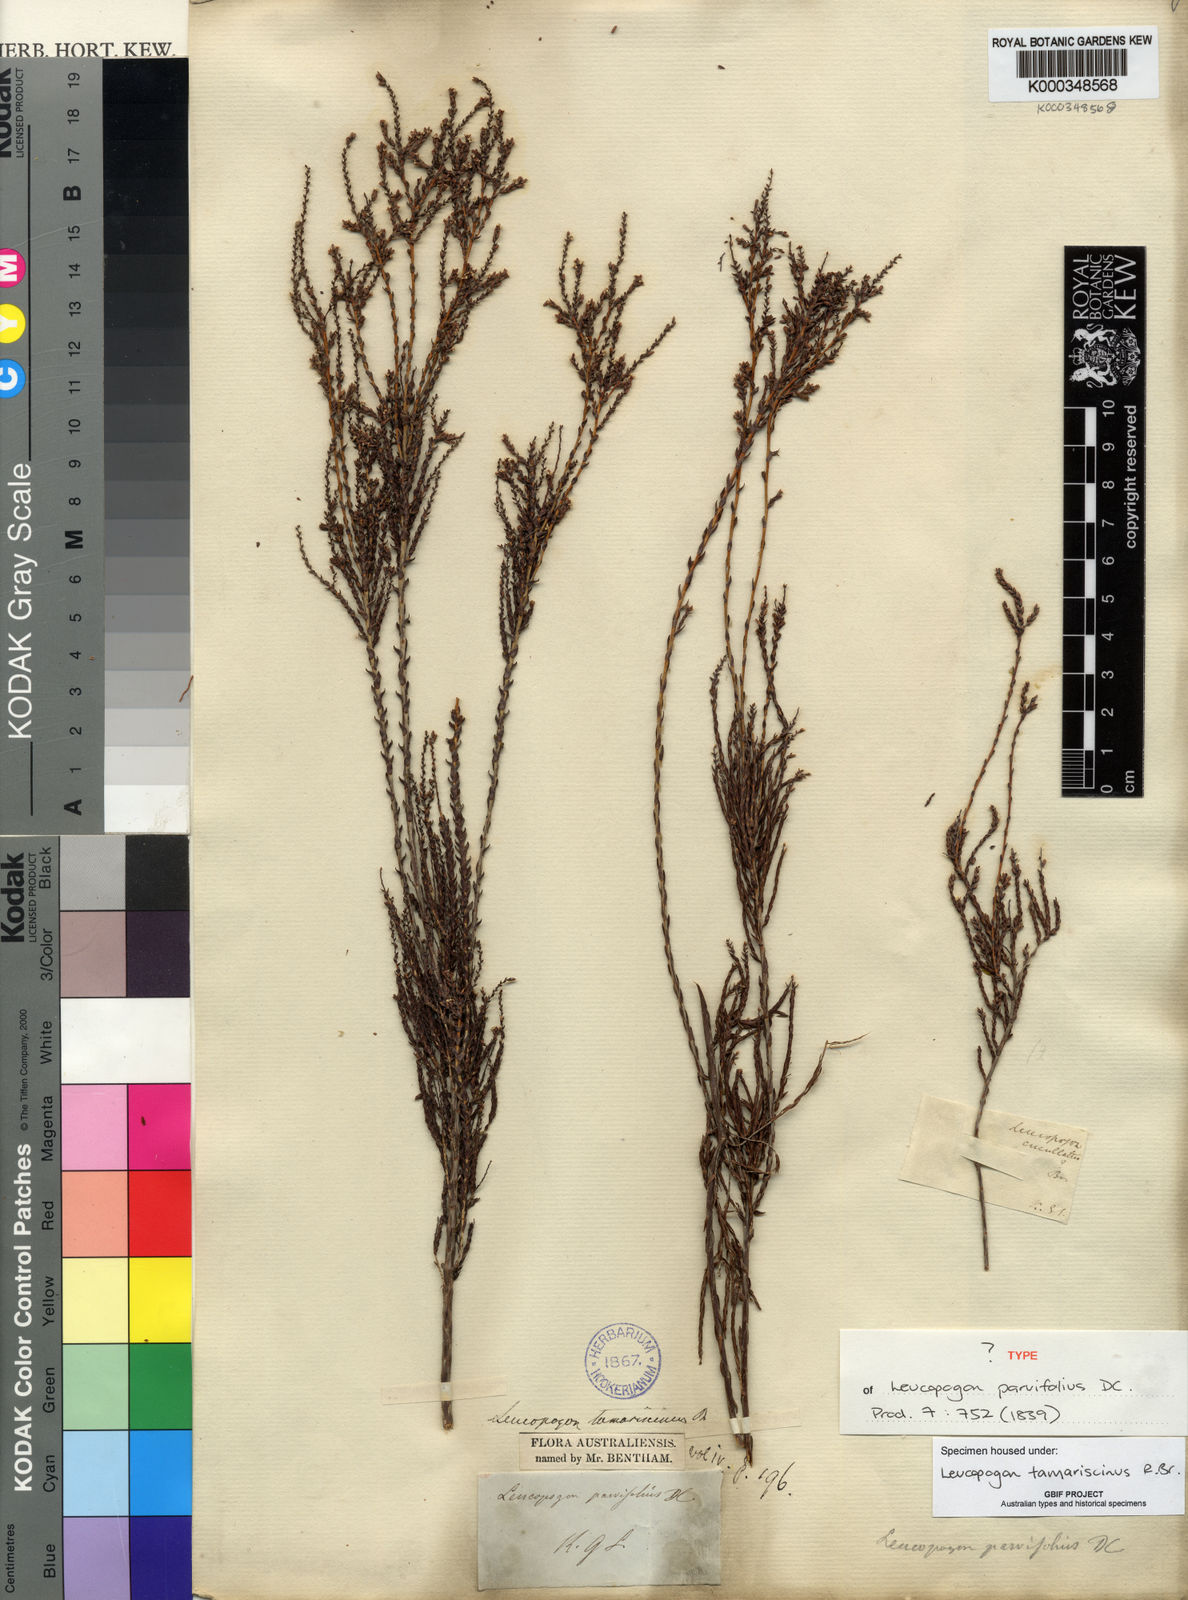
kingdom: Plantae
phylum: Tracheophyta
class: Magnoliopsida
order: Ericales
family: Ericaceae
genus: Leucopogon
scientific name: Leucopogon tamariscinus
